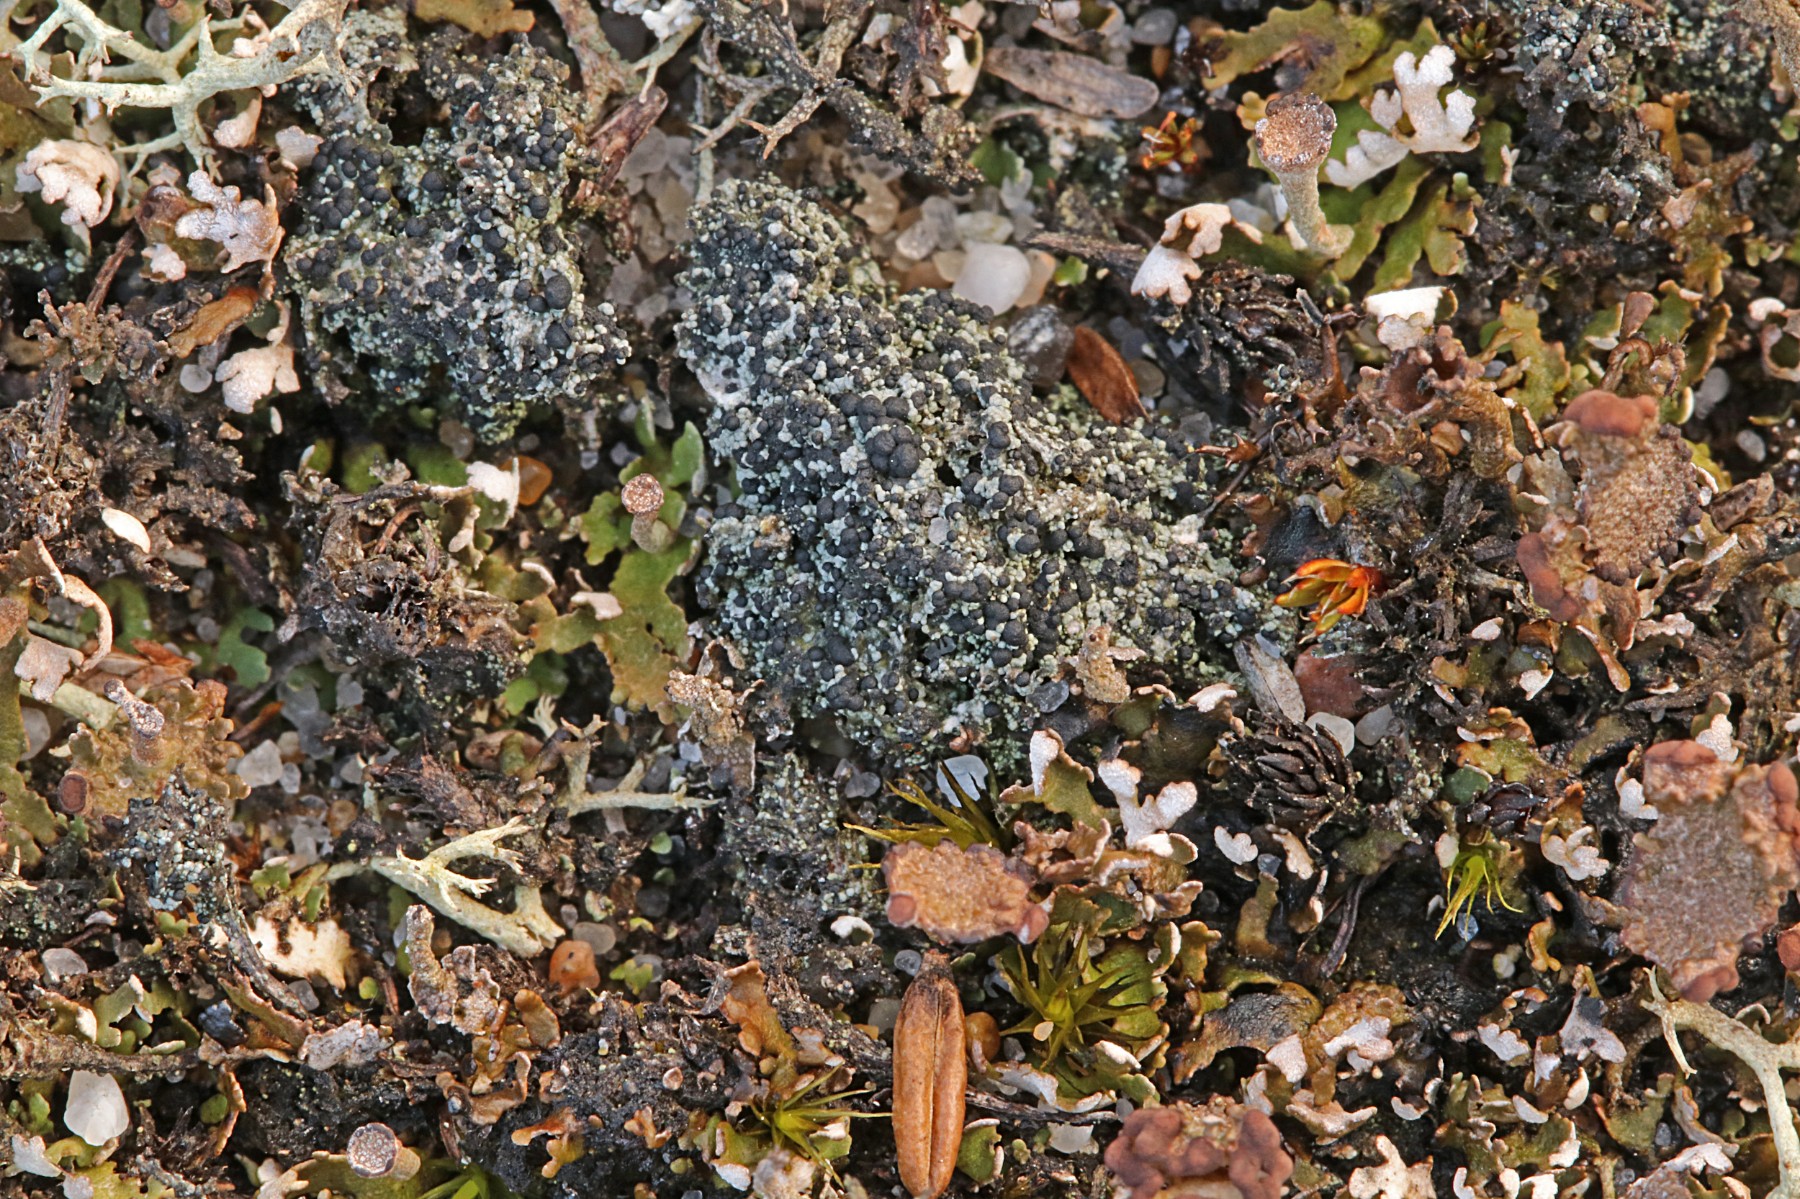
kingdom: Fungi
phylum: Ascomycota
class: Lecanoromycetes
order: Lecanorales
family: Byssolomataceae
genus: Micarea
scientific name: Micarea lignaria
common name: tørve-knaplav
